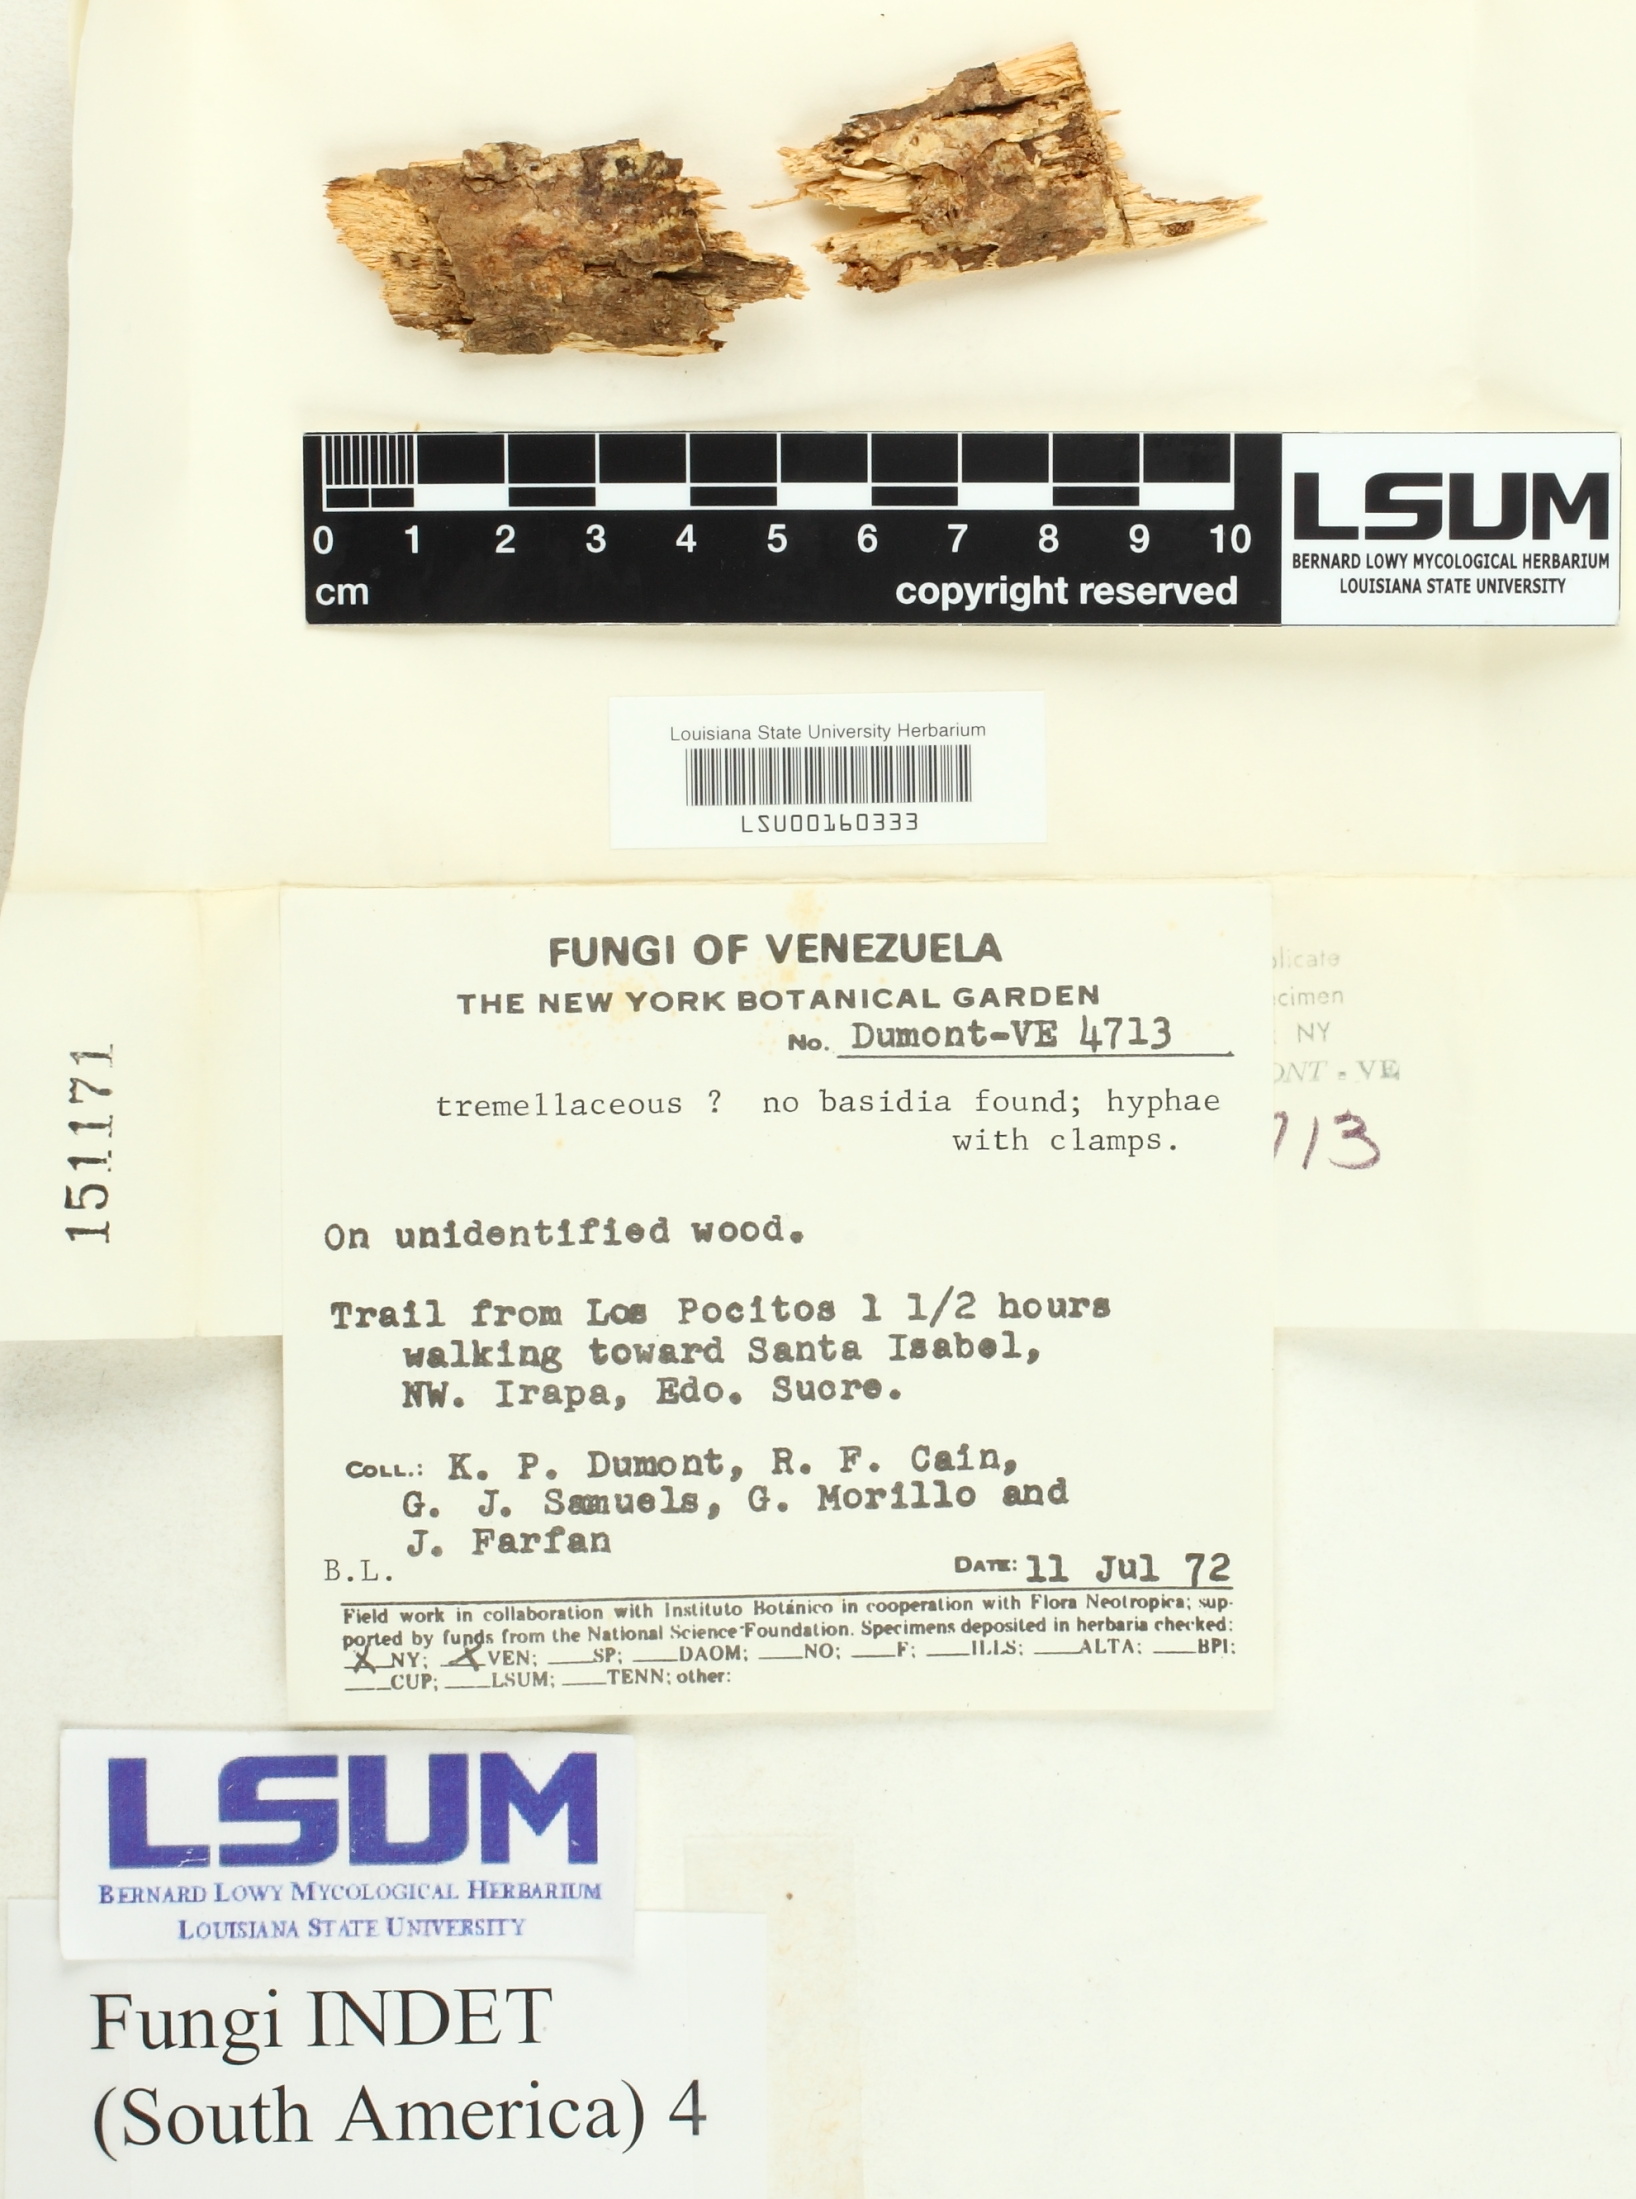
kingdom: Fungi
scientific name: Fungi
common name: Fungi
